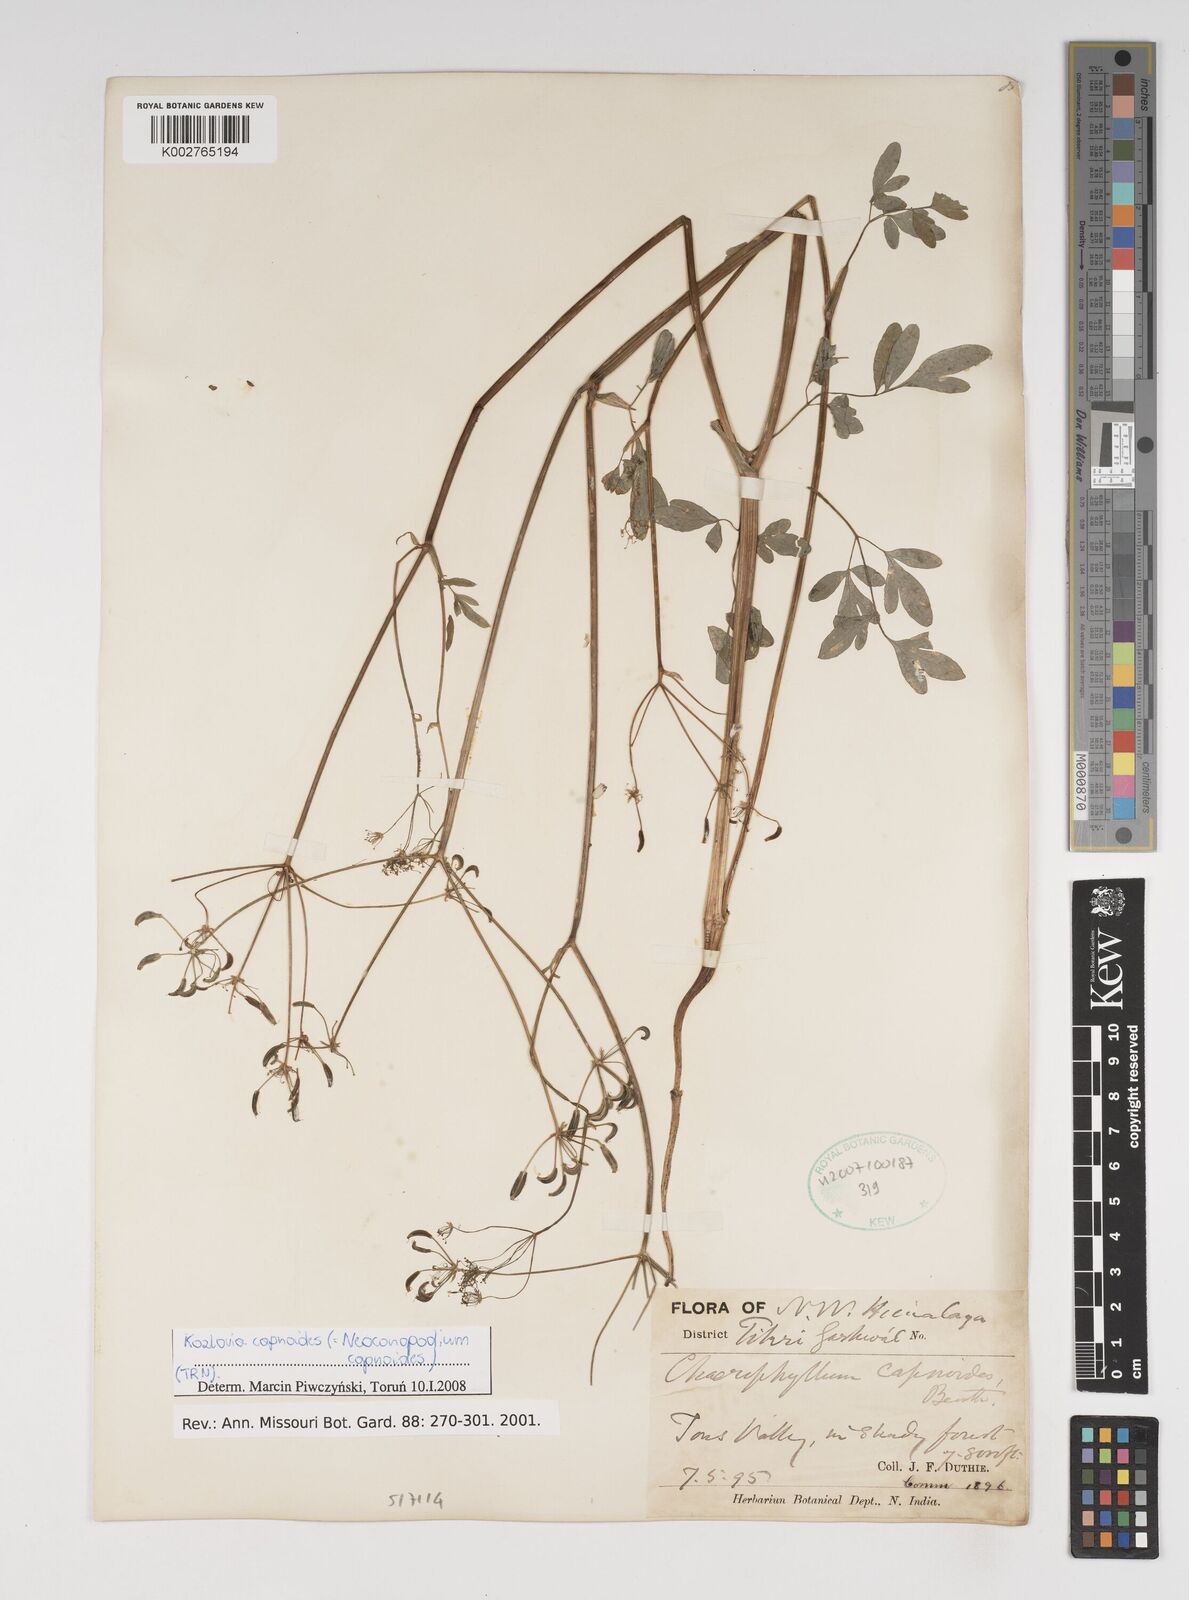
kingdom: Plantae
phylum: Tracheophyta
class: Magnoliopsida
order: Apiales
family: Apiaceae
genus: Kozlovia
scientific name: Kozlovia capnoides
